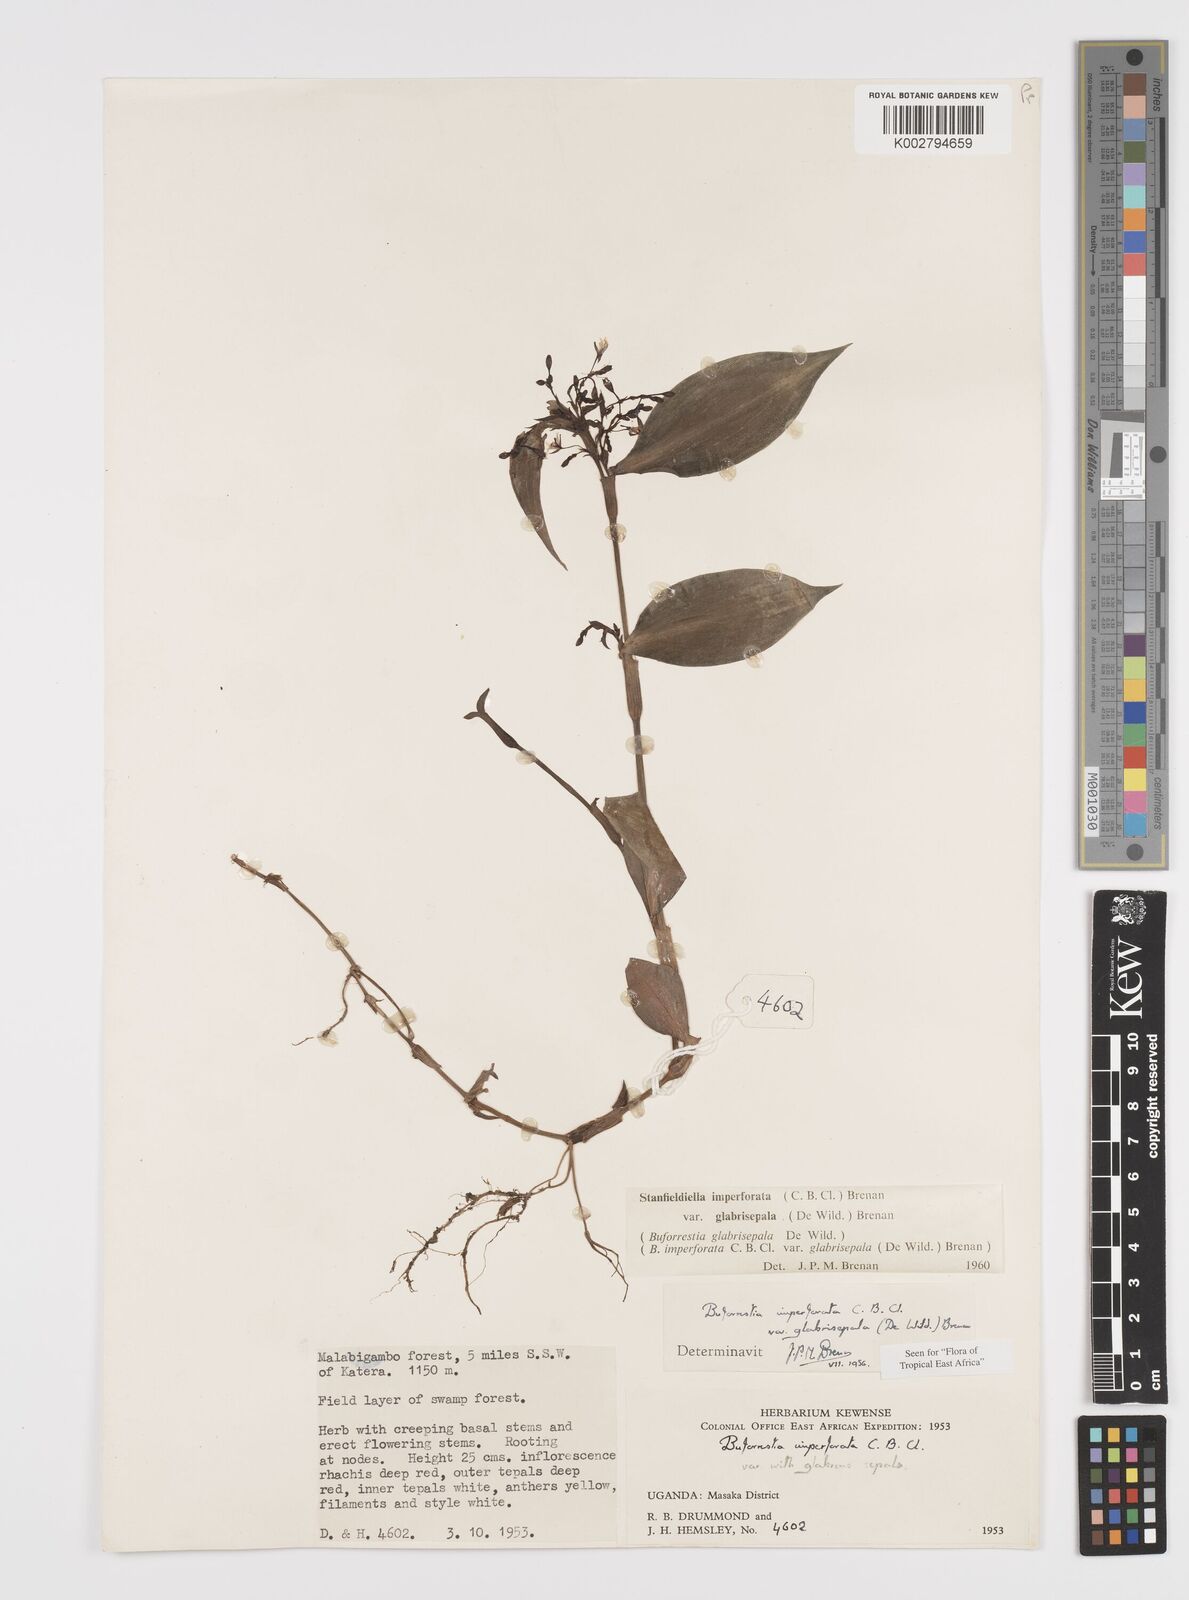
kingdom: Plantae
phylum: Tracheophyta
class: Liliopsida
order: Commelinales
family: Commelinaceae
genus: Stanfieldiella
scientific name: Stanfieldiella imperforata
